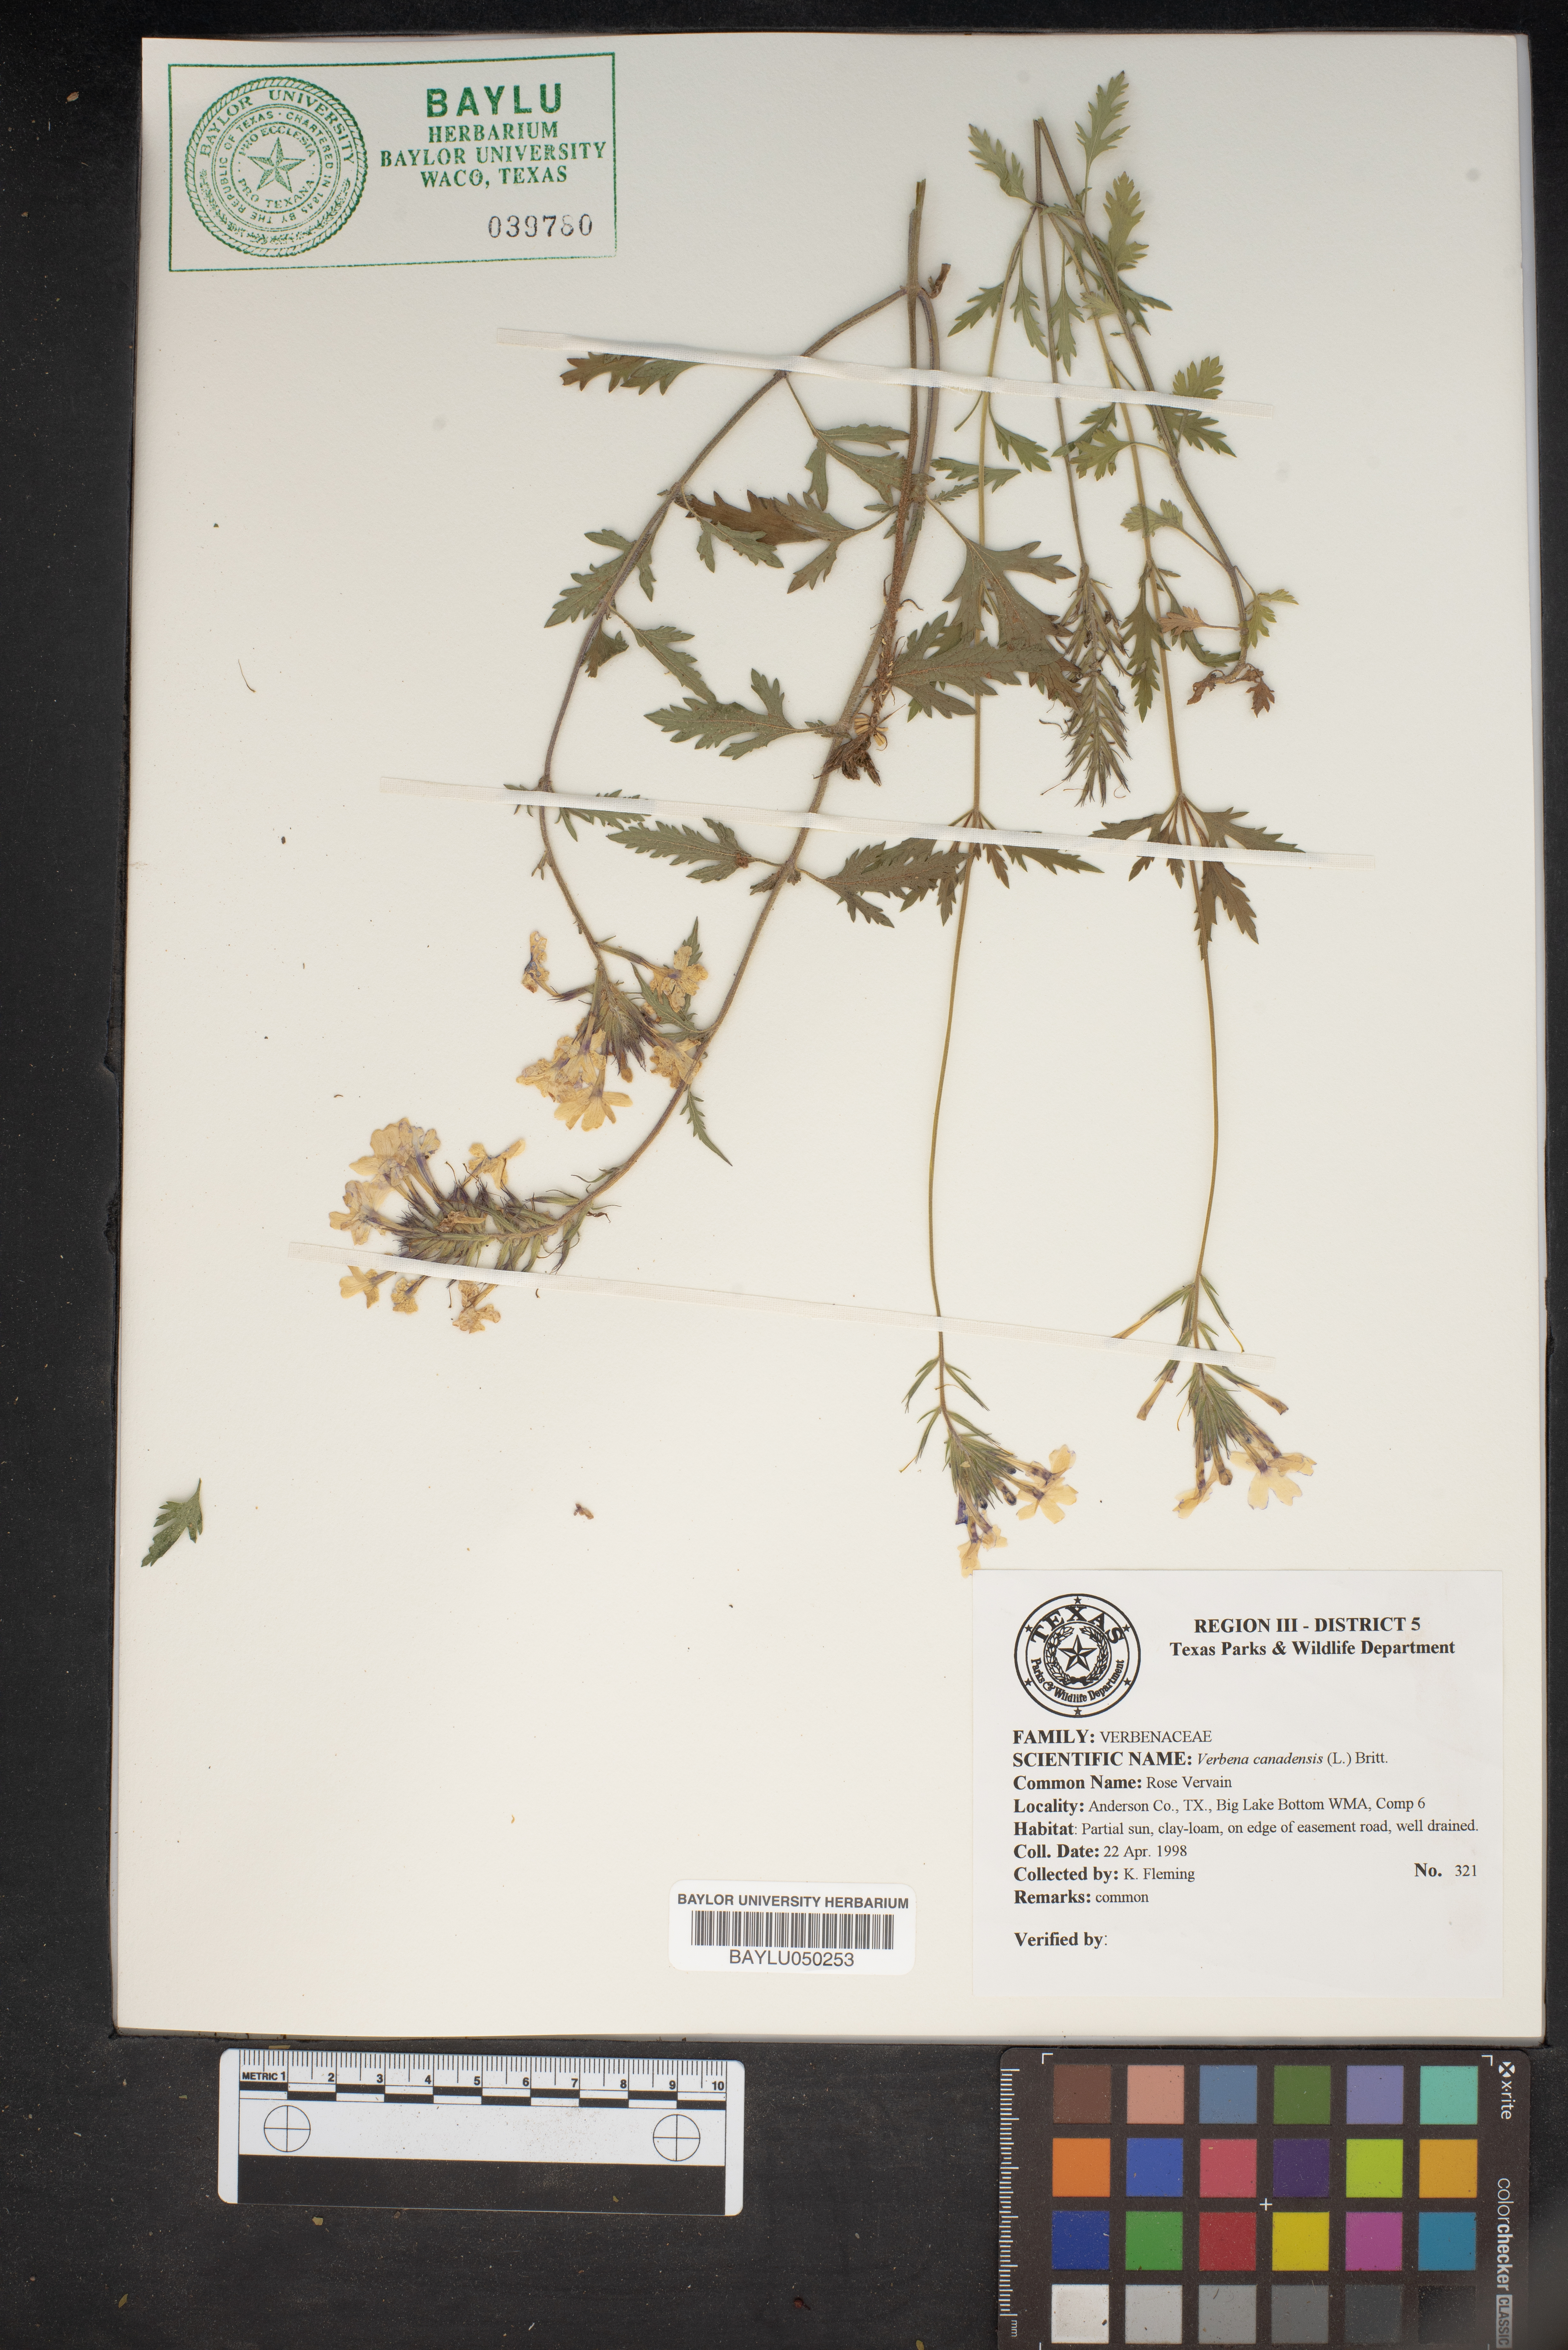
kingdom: Plantae
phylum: Tracheophyta
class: Magnoliopsida
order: Lamiales
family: Verbenaceae
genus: Verbena
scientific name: Verbena canadensis
